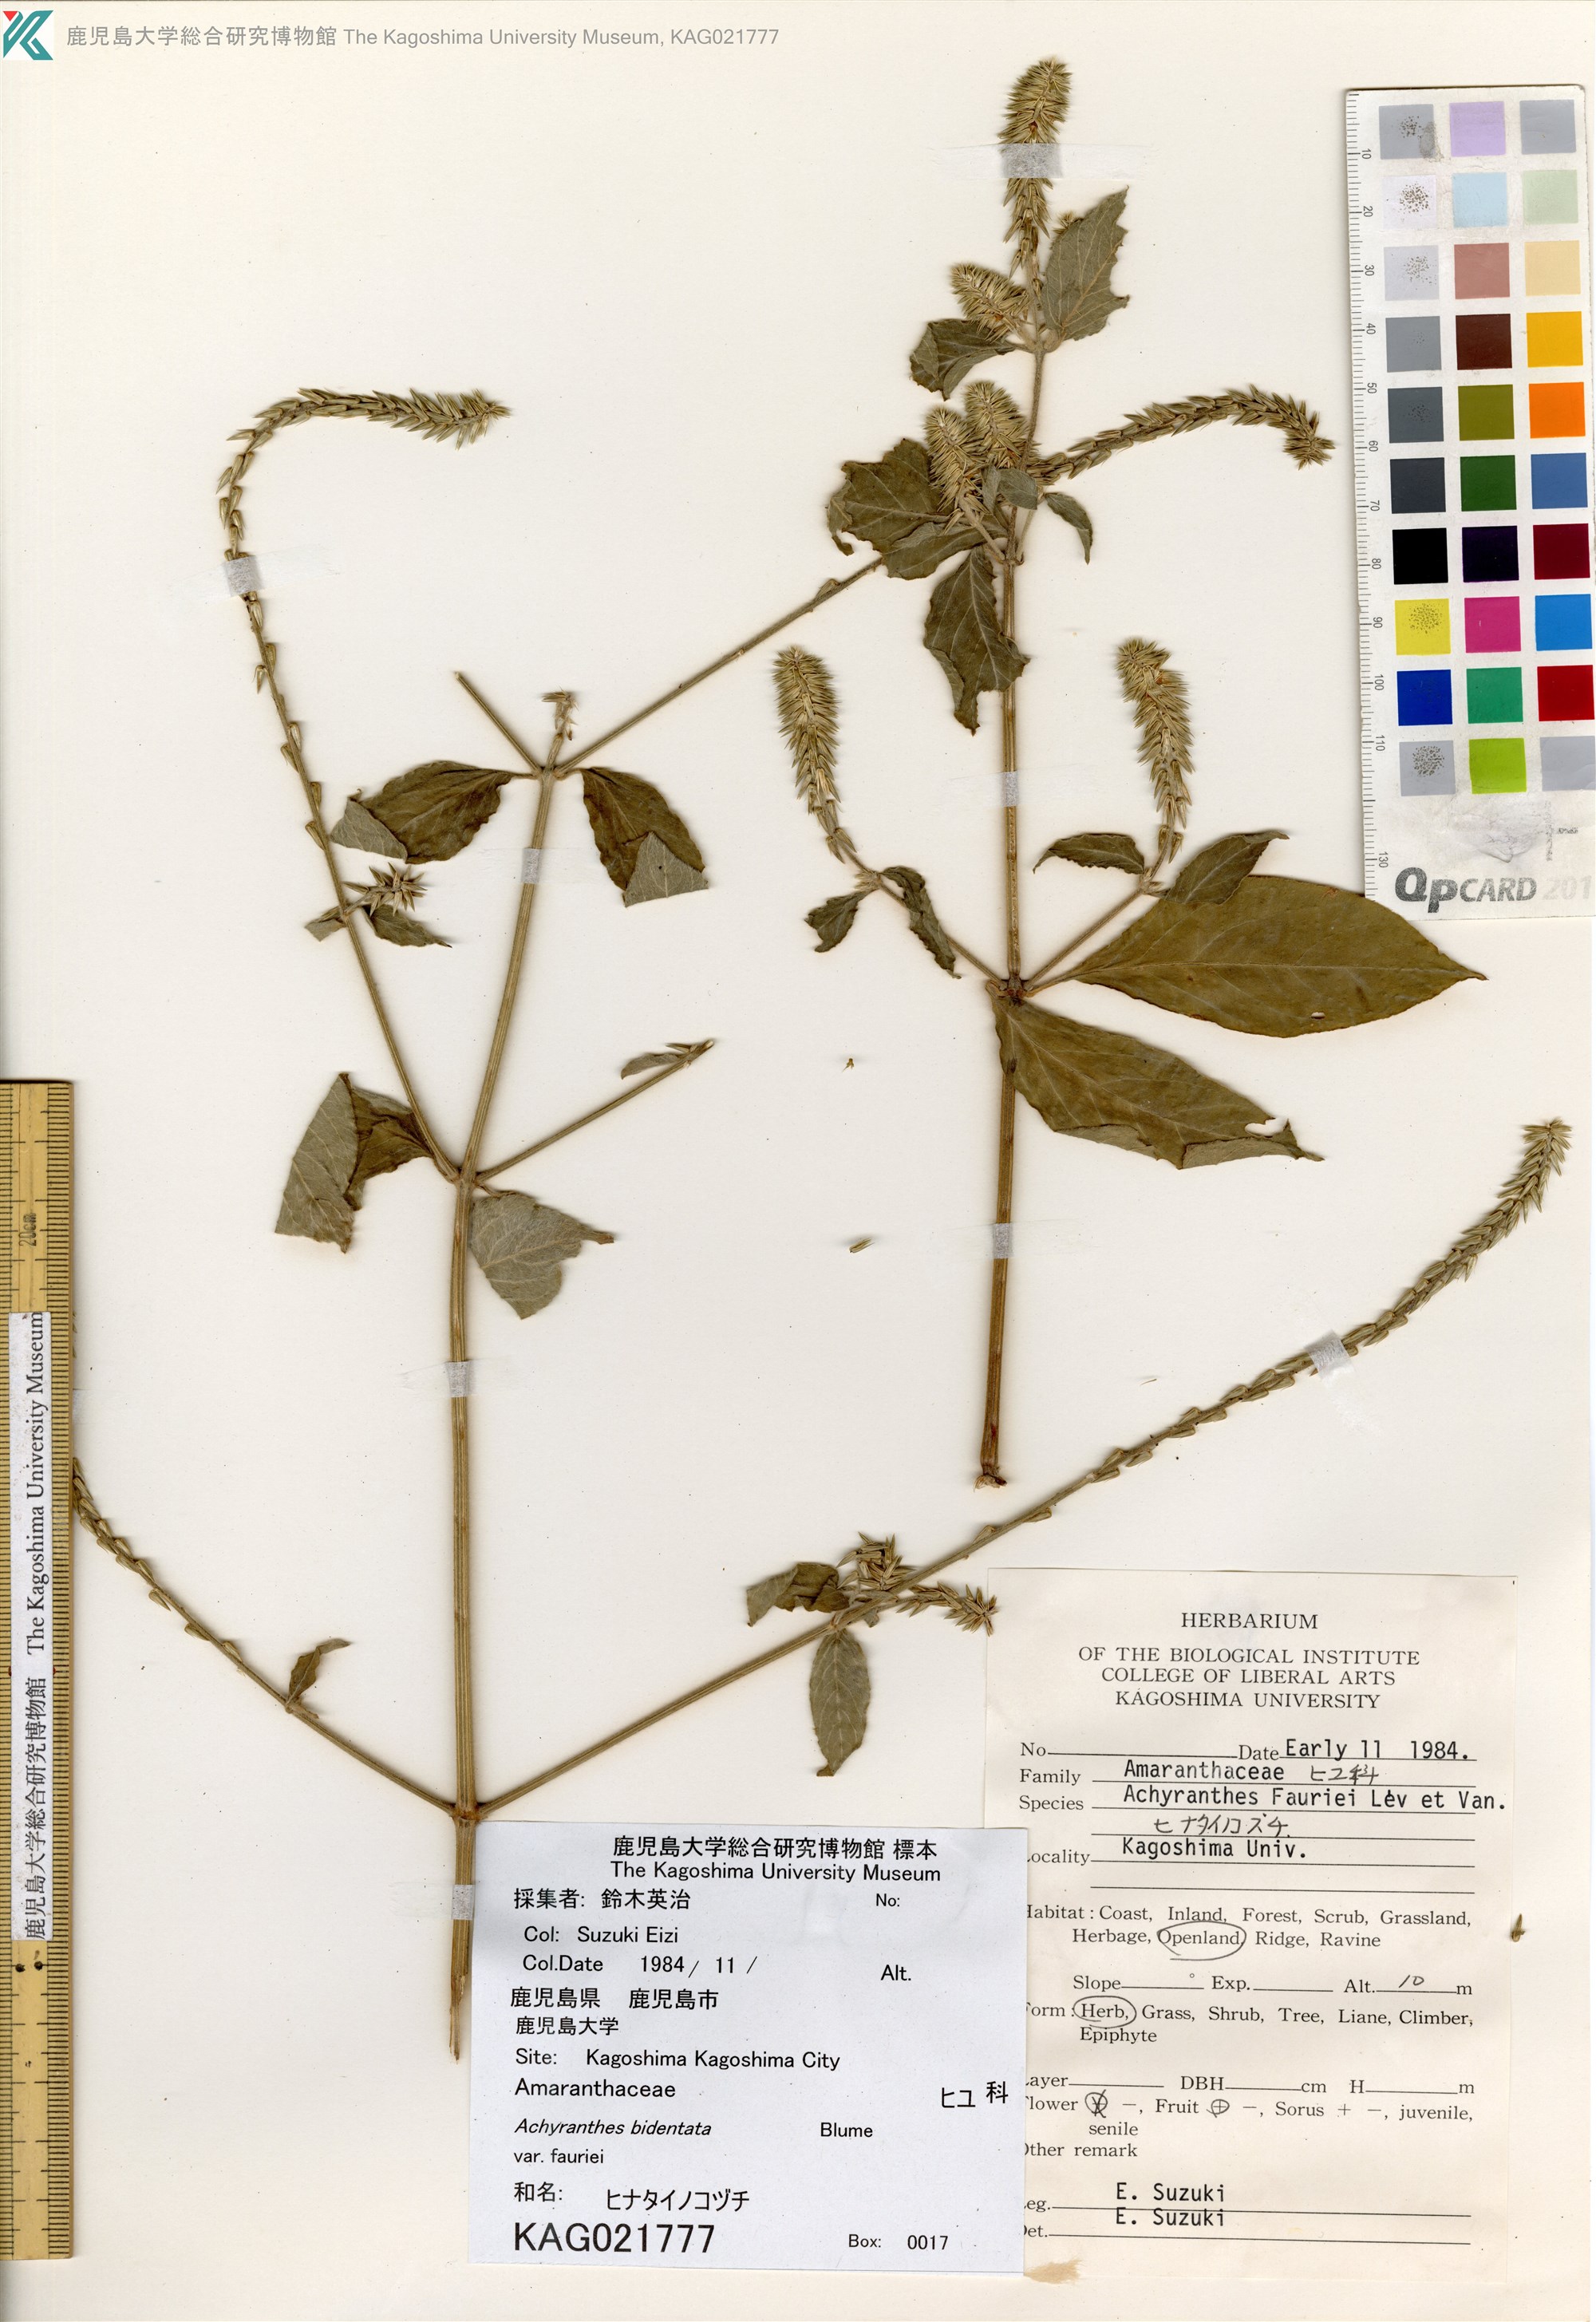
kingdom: Plantae
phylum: Tracheophyta
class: Magnoliopsida
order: Caryophyllales
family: Amaranthaceae
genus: Achyranthes
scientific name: Achyranthes bidentata
